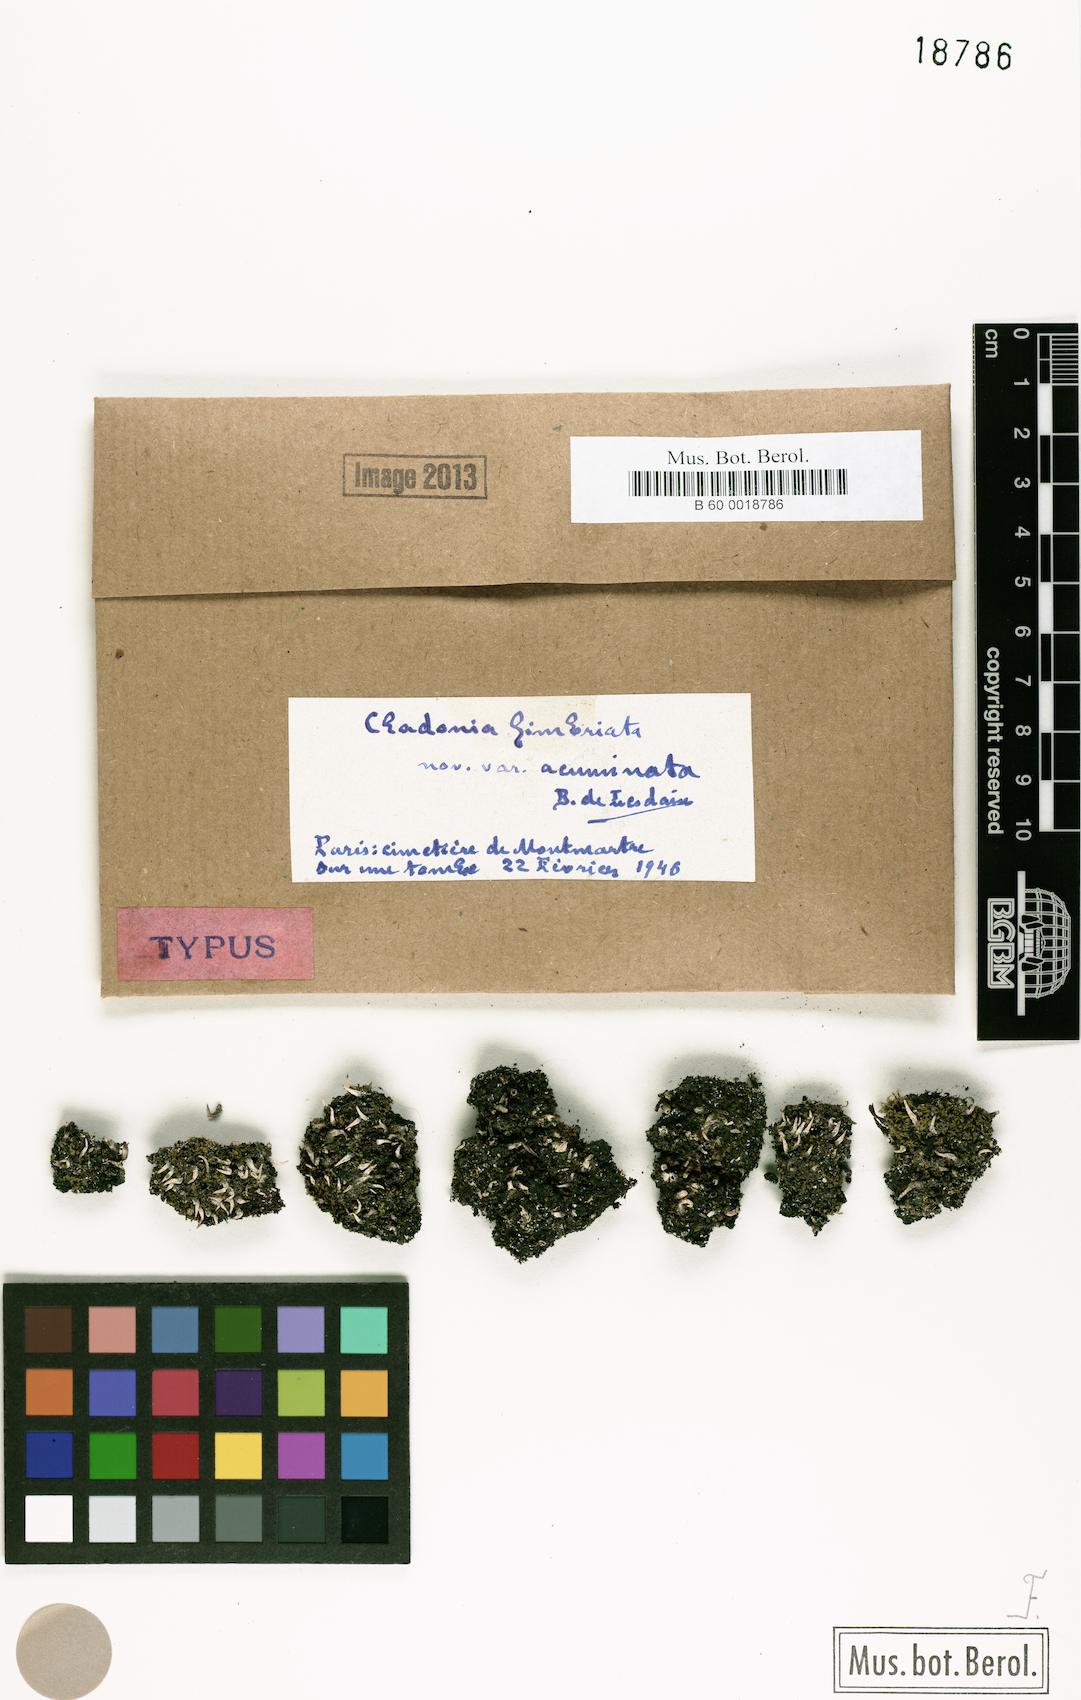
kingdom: Fungi
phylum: Ascomycota
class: Lecanoromycetes
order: Lecanorales
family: Cladoniaceae
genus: Cladonia
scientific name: Cladonia
